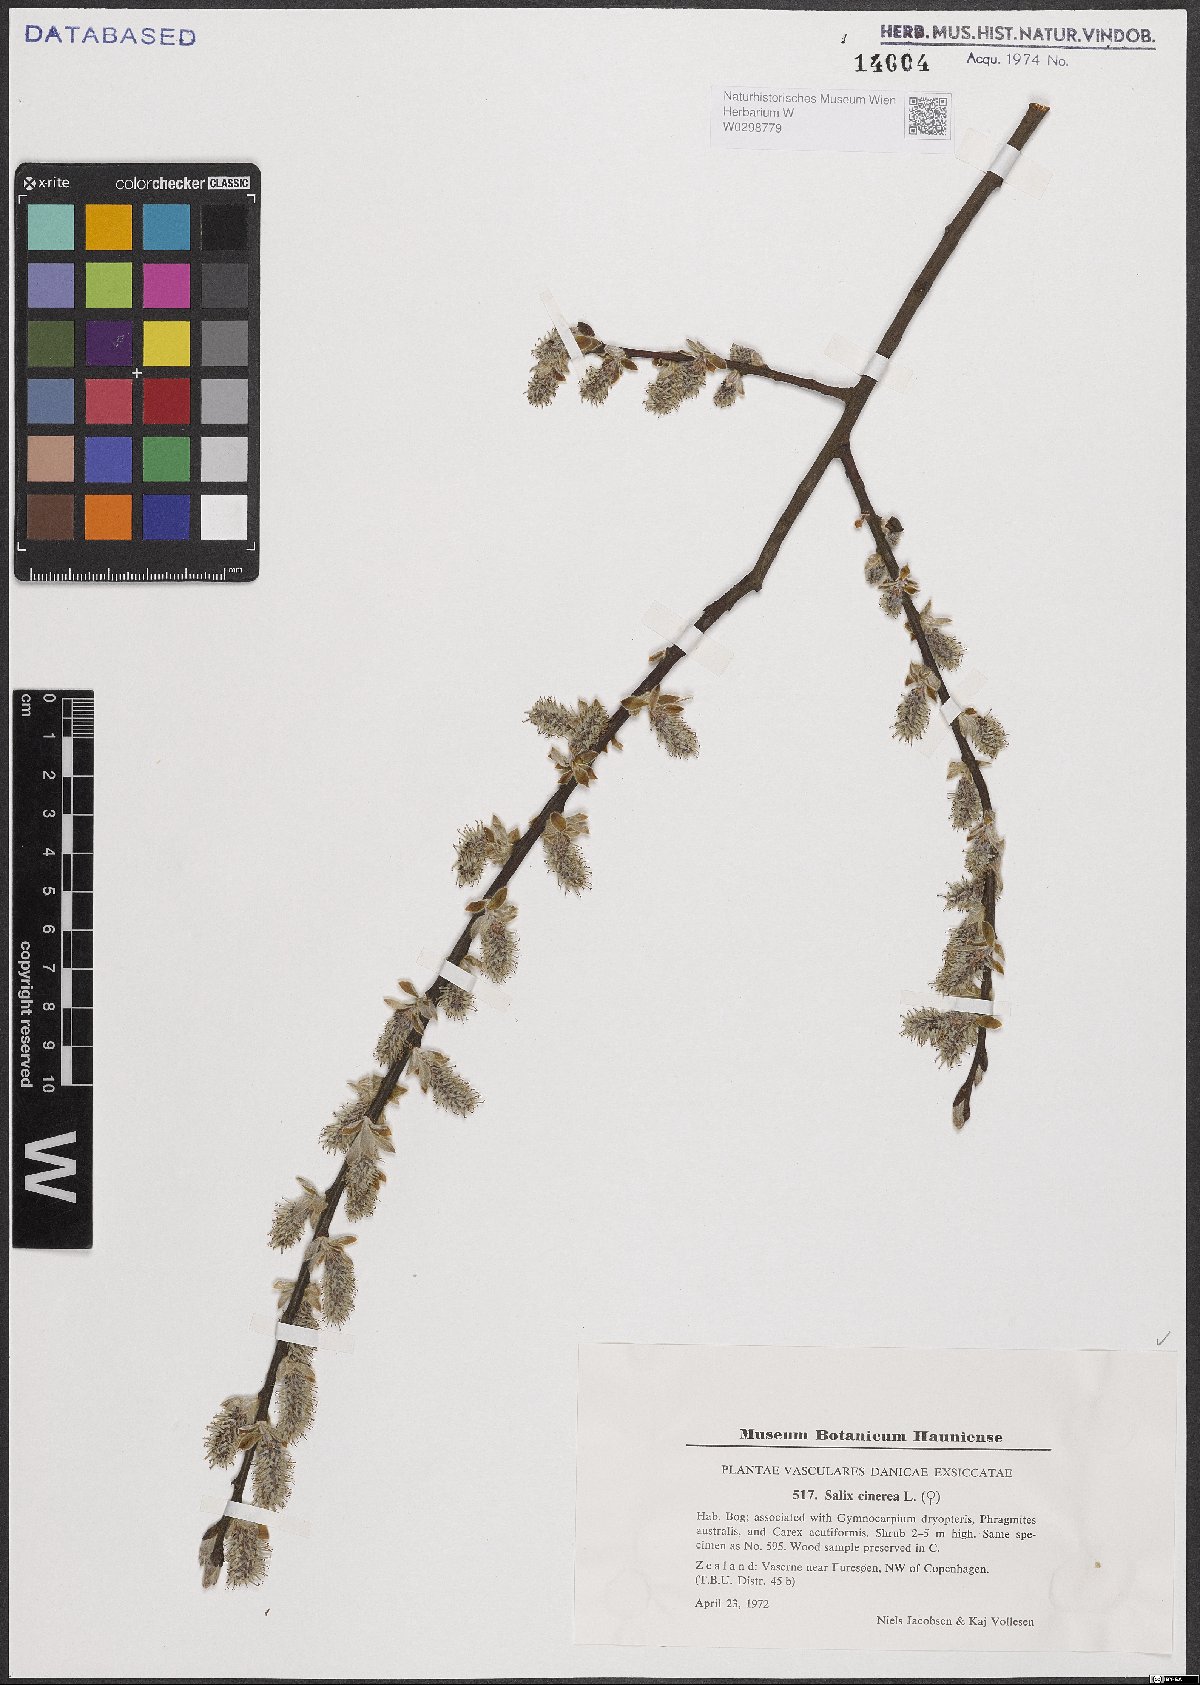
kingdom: Plantae
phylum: Tracheophyta
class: Magnoliopsida
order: Malpighiales
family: Salicaceae
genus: Salix
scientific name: Salix cinerea
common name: Common sallow
